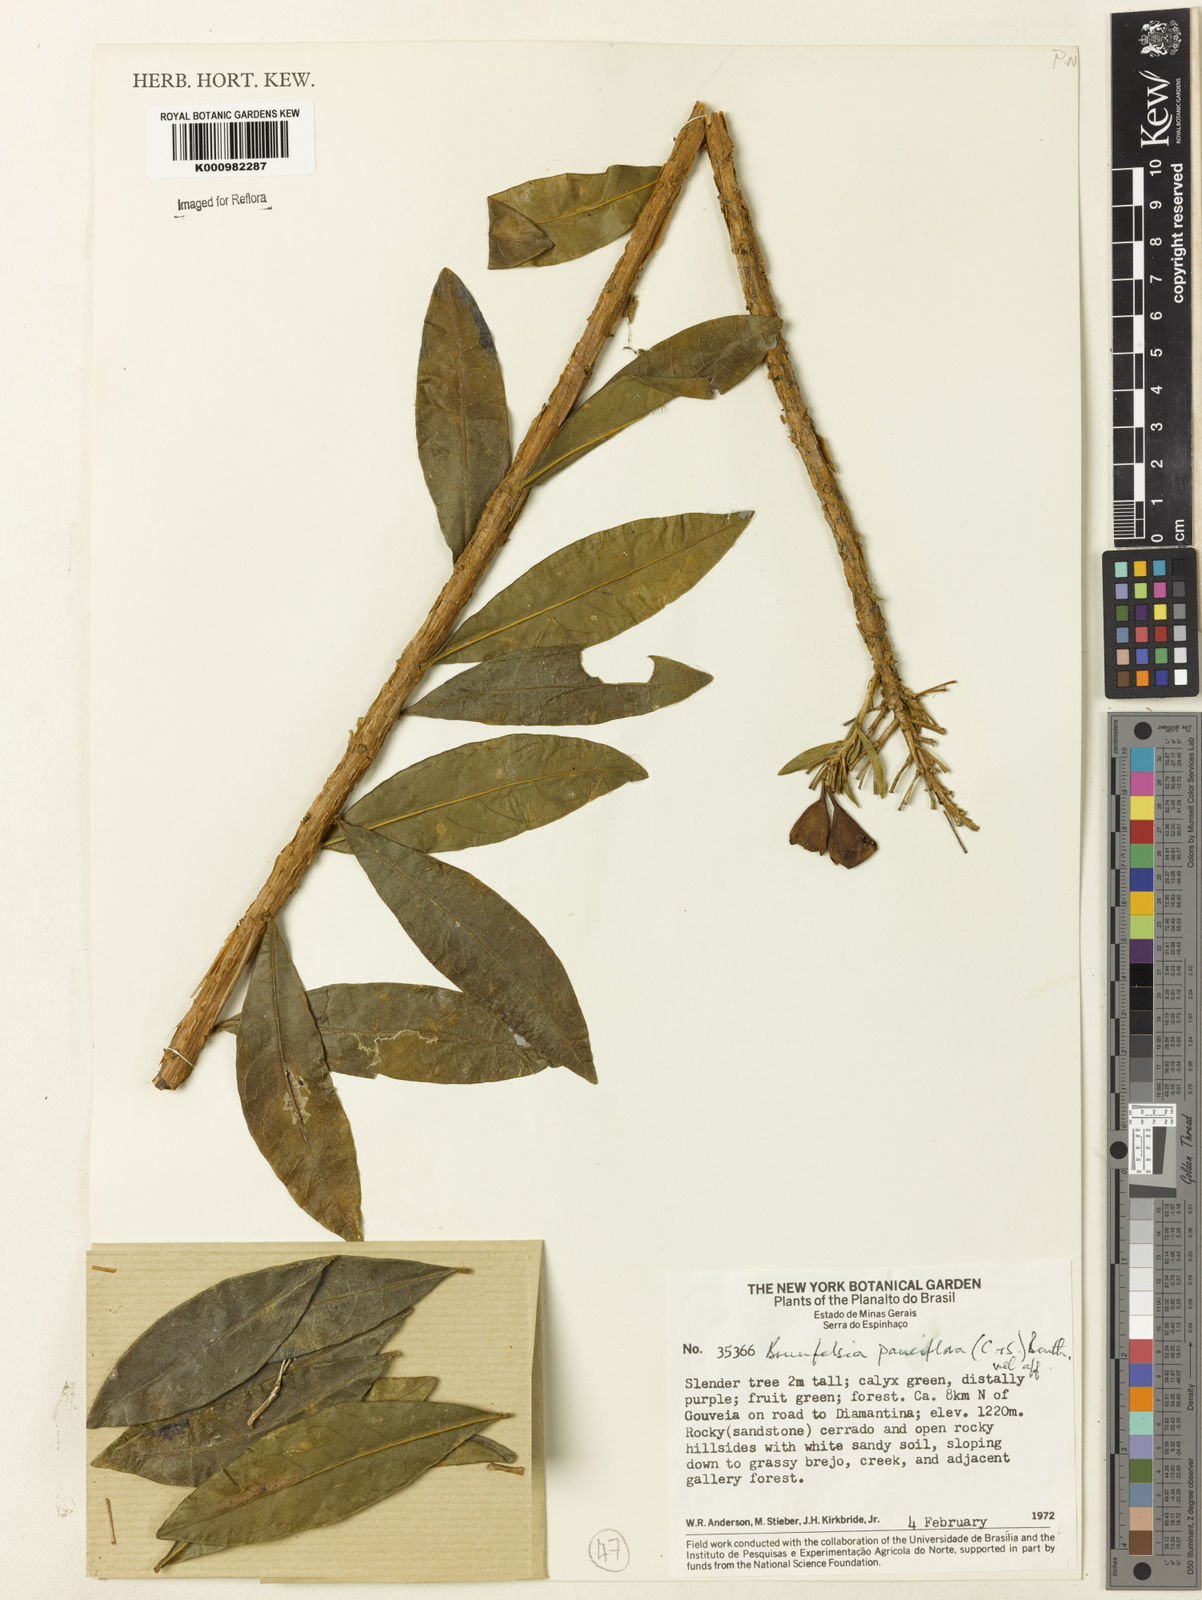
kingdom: Plantae
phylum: Tracheophyta
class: Magnoliopsida
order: Solanales
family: Solanaceae
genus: Brunfelsia
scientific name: Brunfelsia pauciflora
